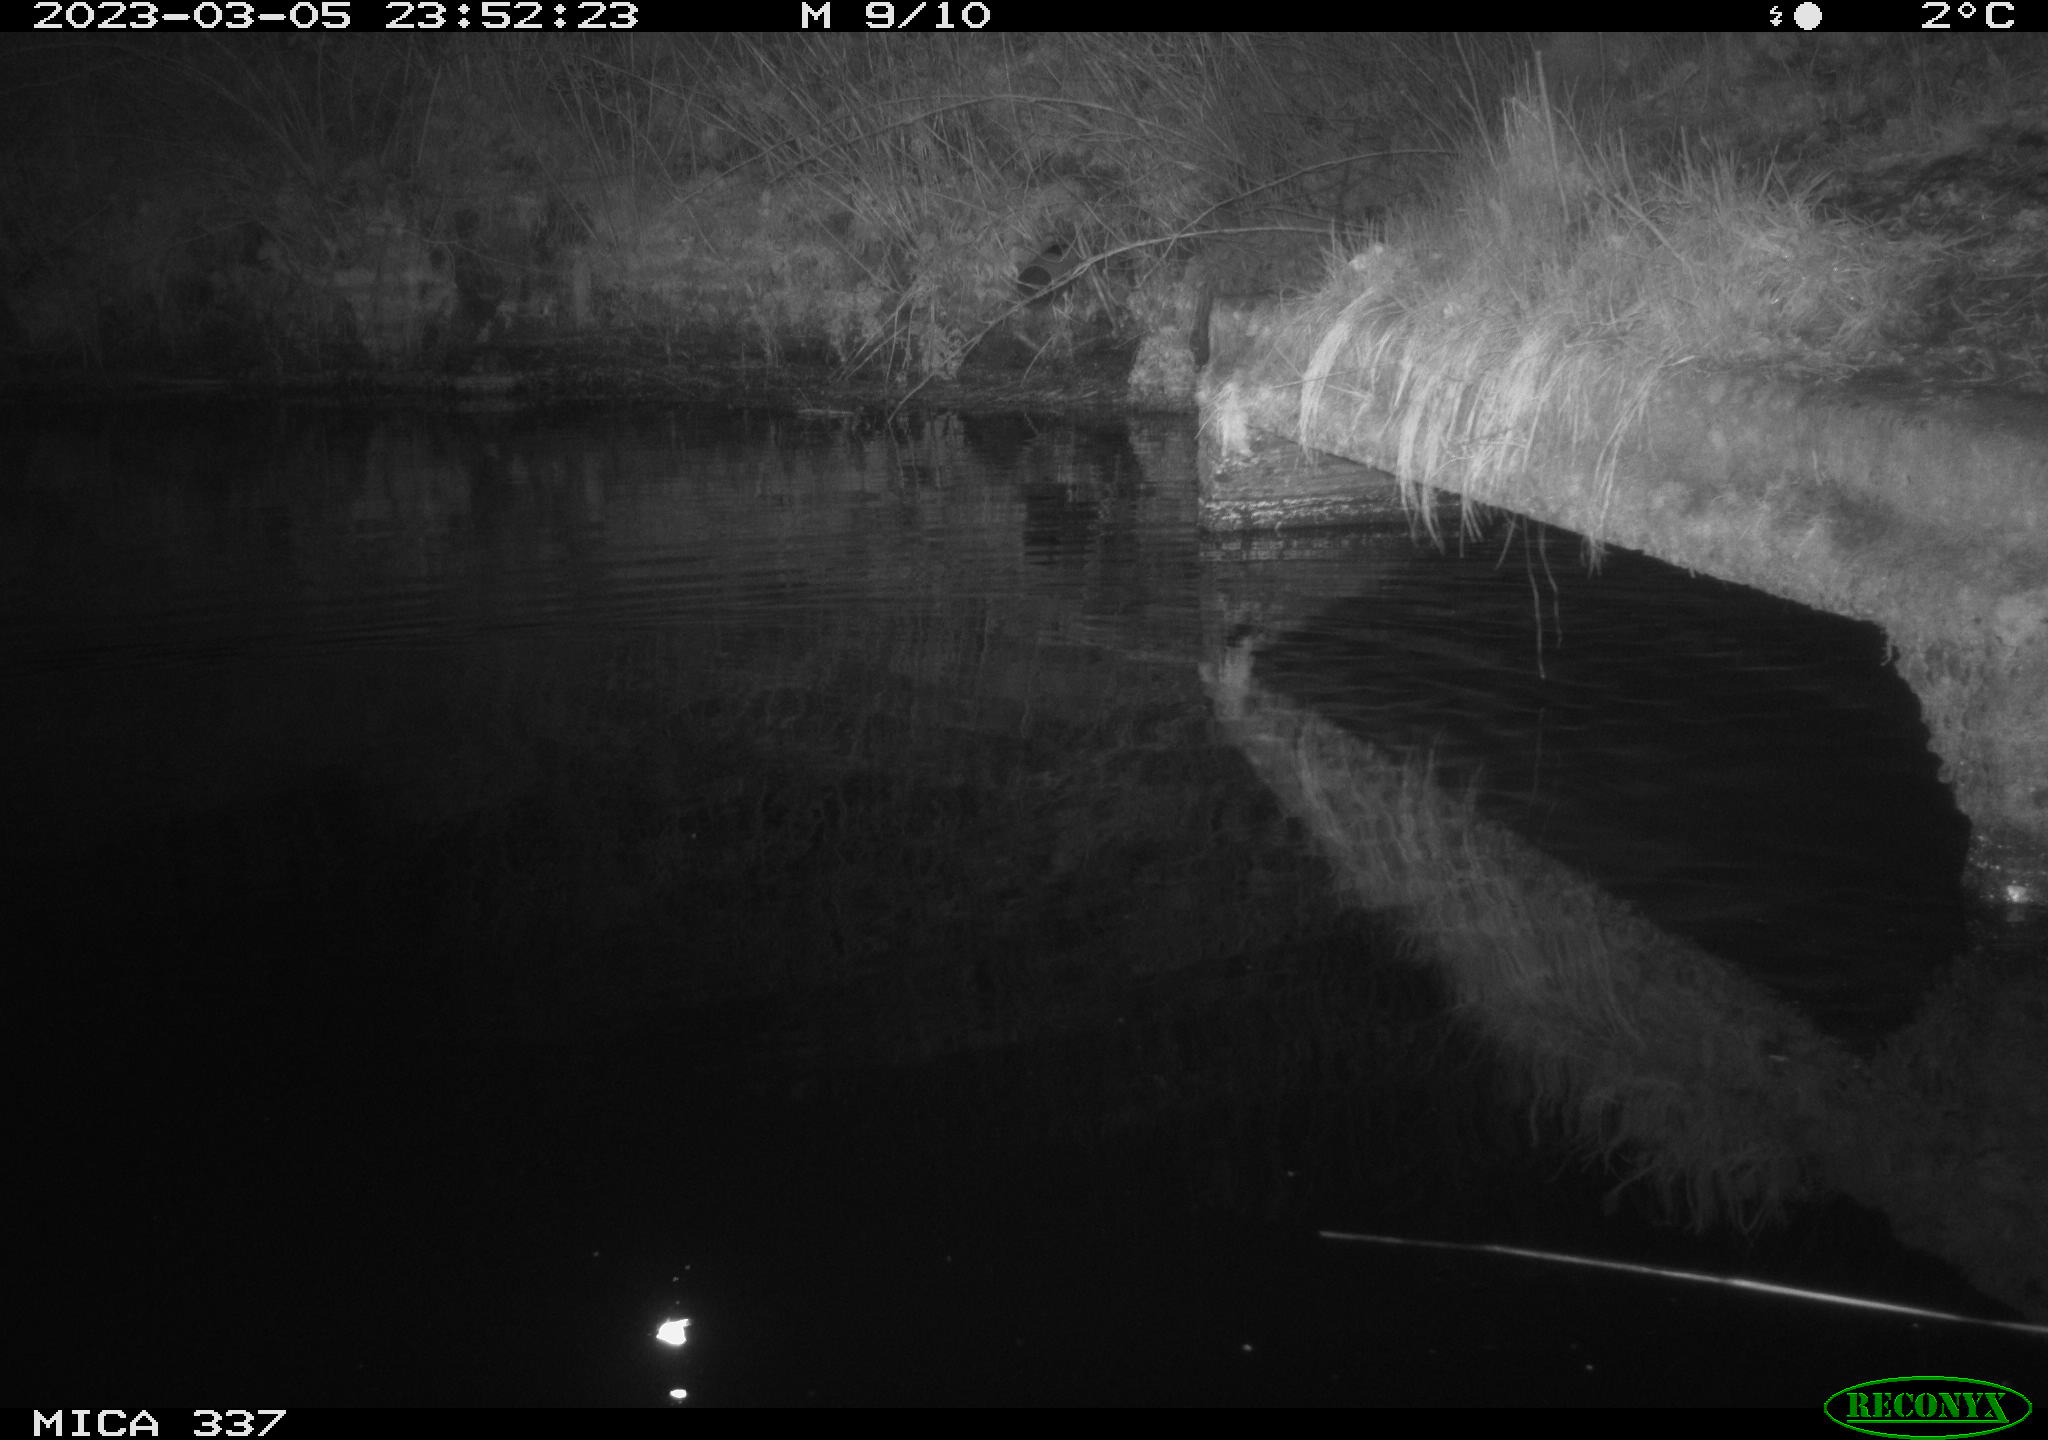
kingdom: Animalia
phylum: Chordata
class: Aves
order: Anseriformes
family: Anatidae
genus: Anas
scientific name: Anas
